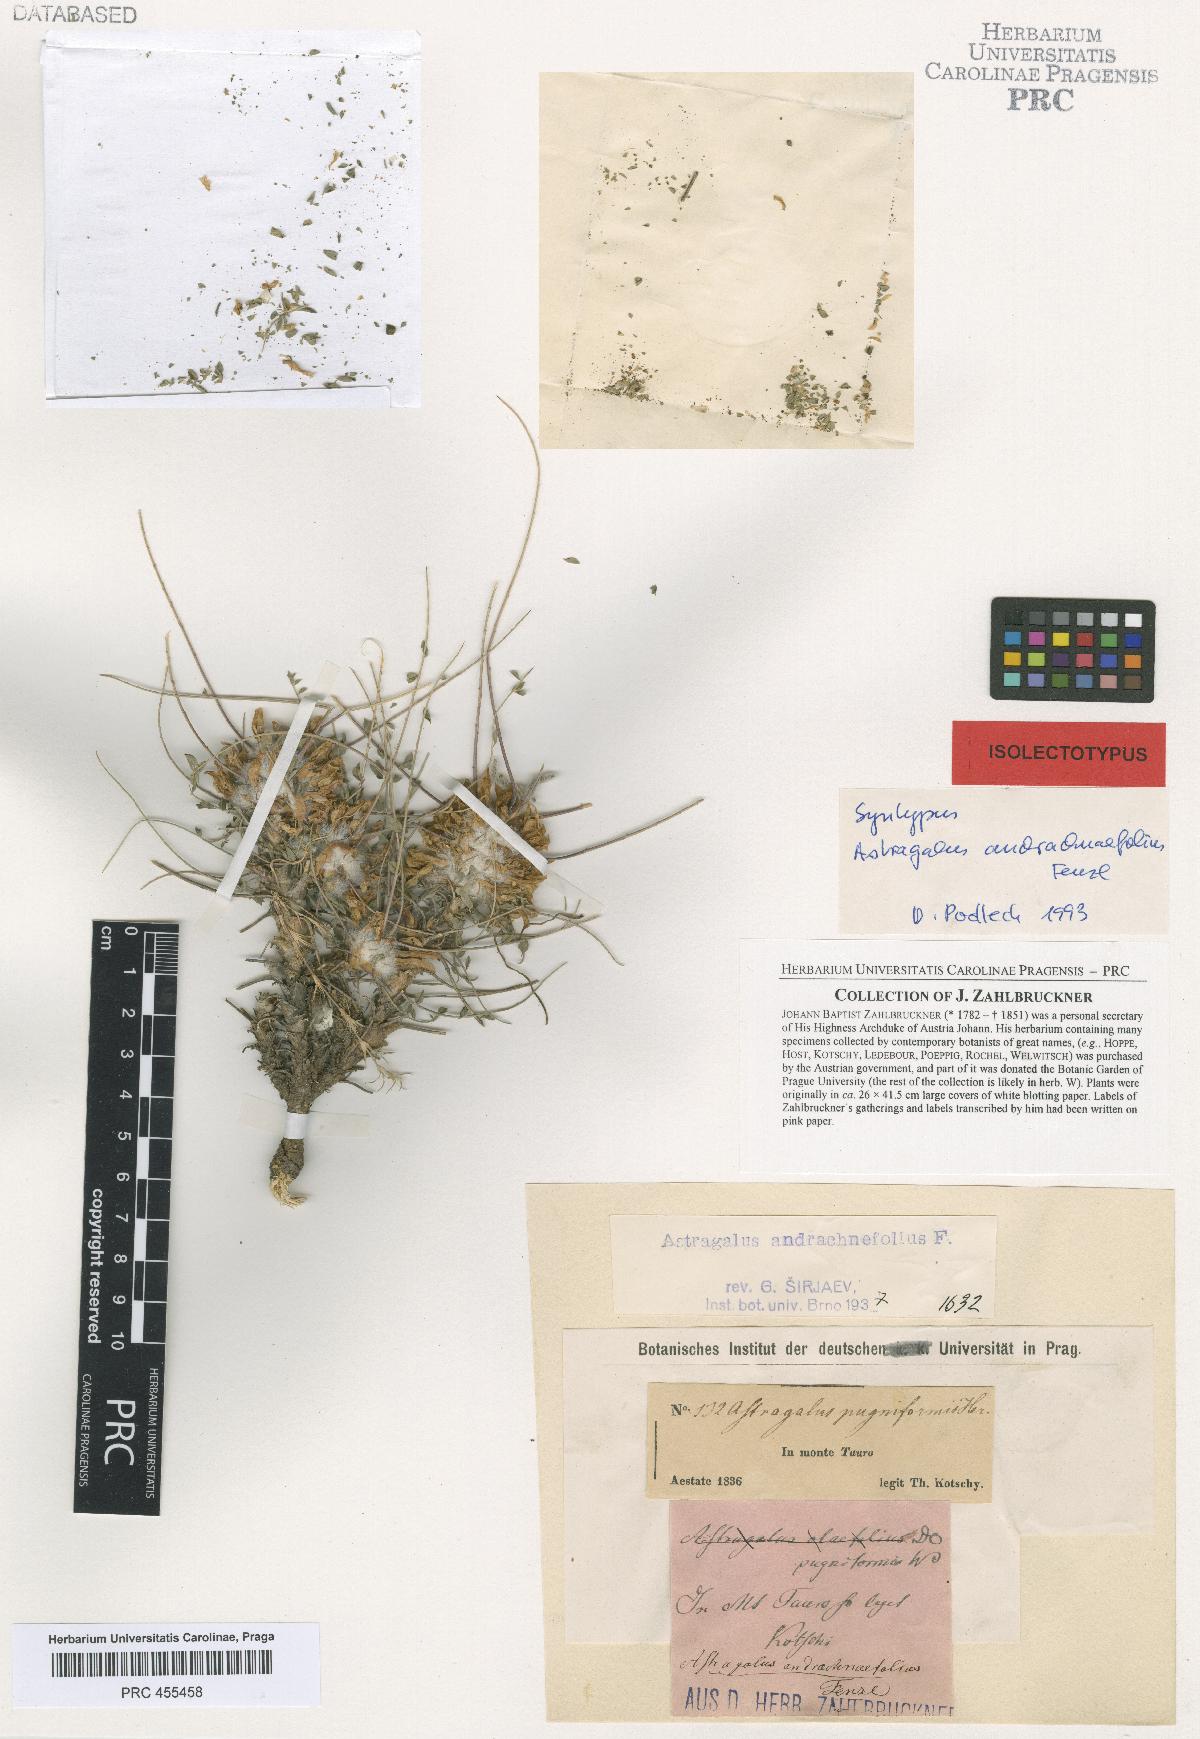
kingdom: Plantae
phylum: Tracheophyta
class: Magnoliopsida
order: Fabales
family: Fabaceae
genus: Astragalus
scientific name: Astragalus cephalotes
